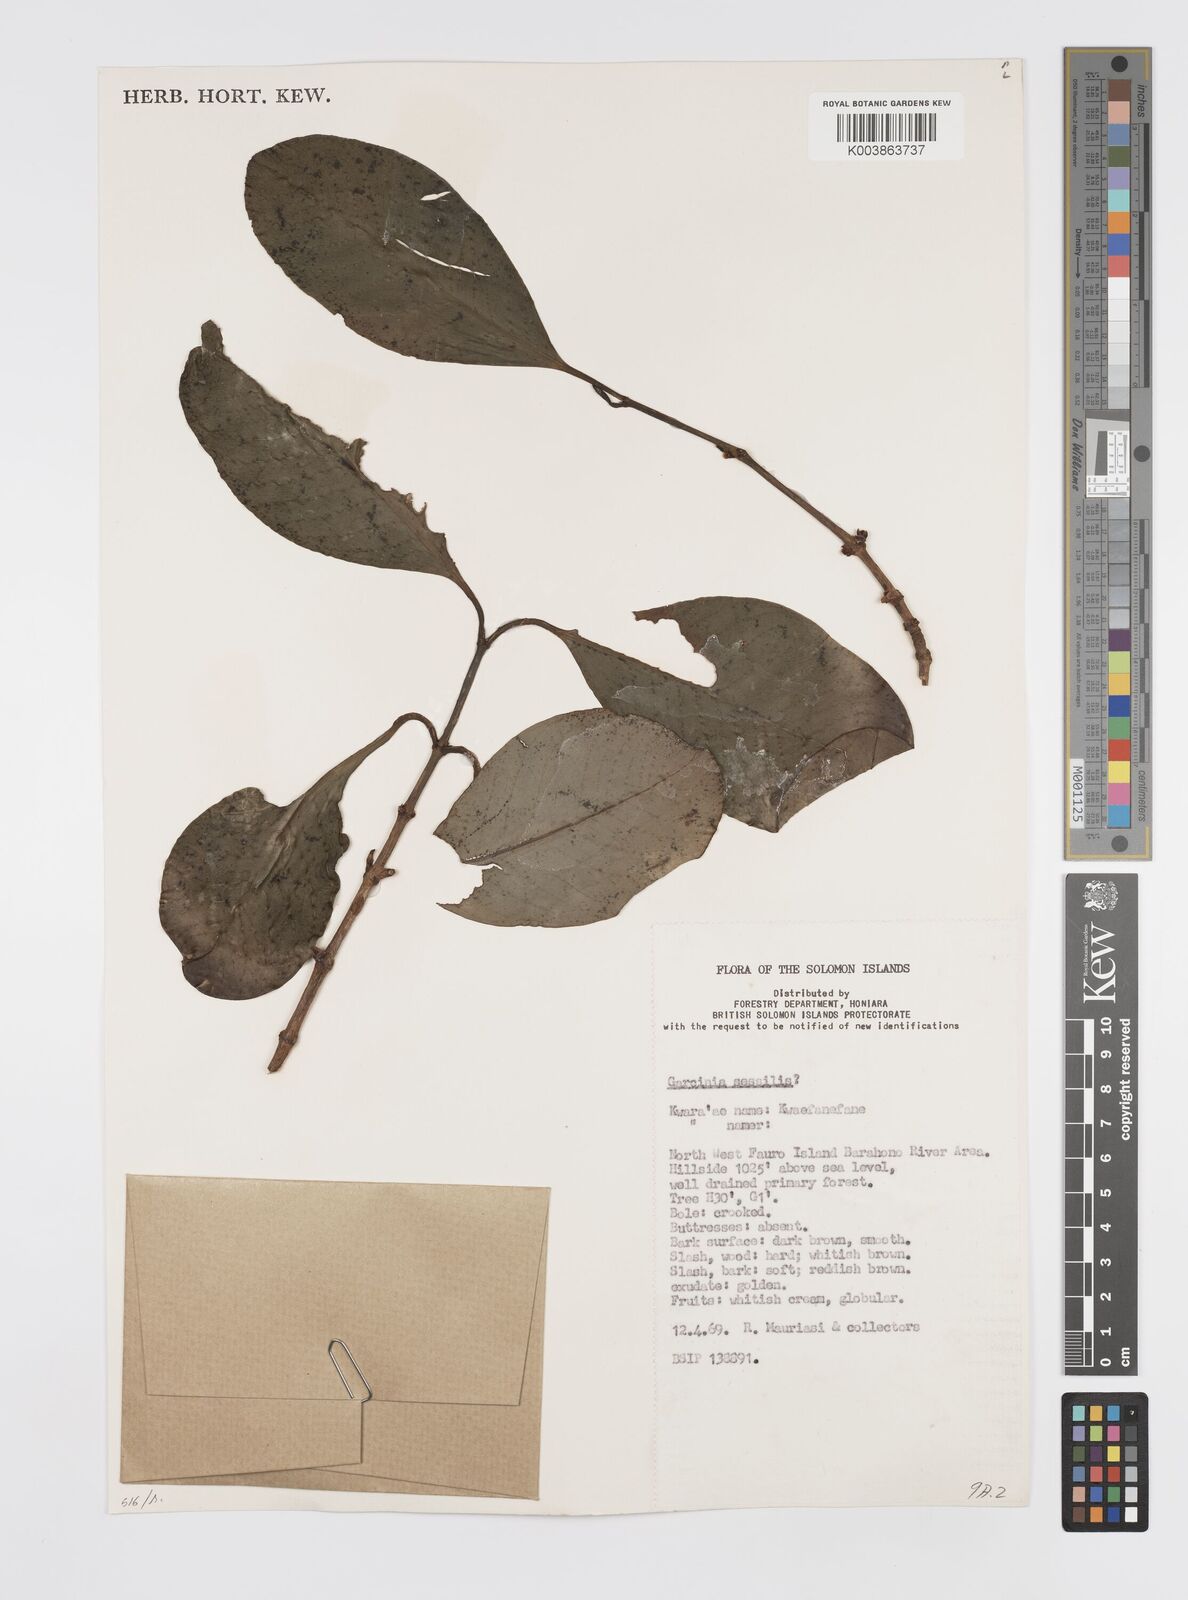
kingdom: Plantae
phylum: Tracheophyta
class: Magnoliopsida
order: Malpighiales
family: Clusiaceae
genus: Garcinia
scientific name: Garcinia sessilis
